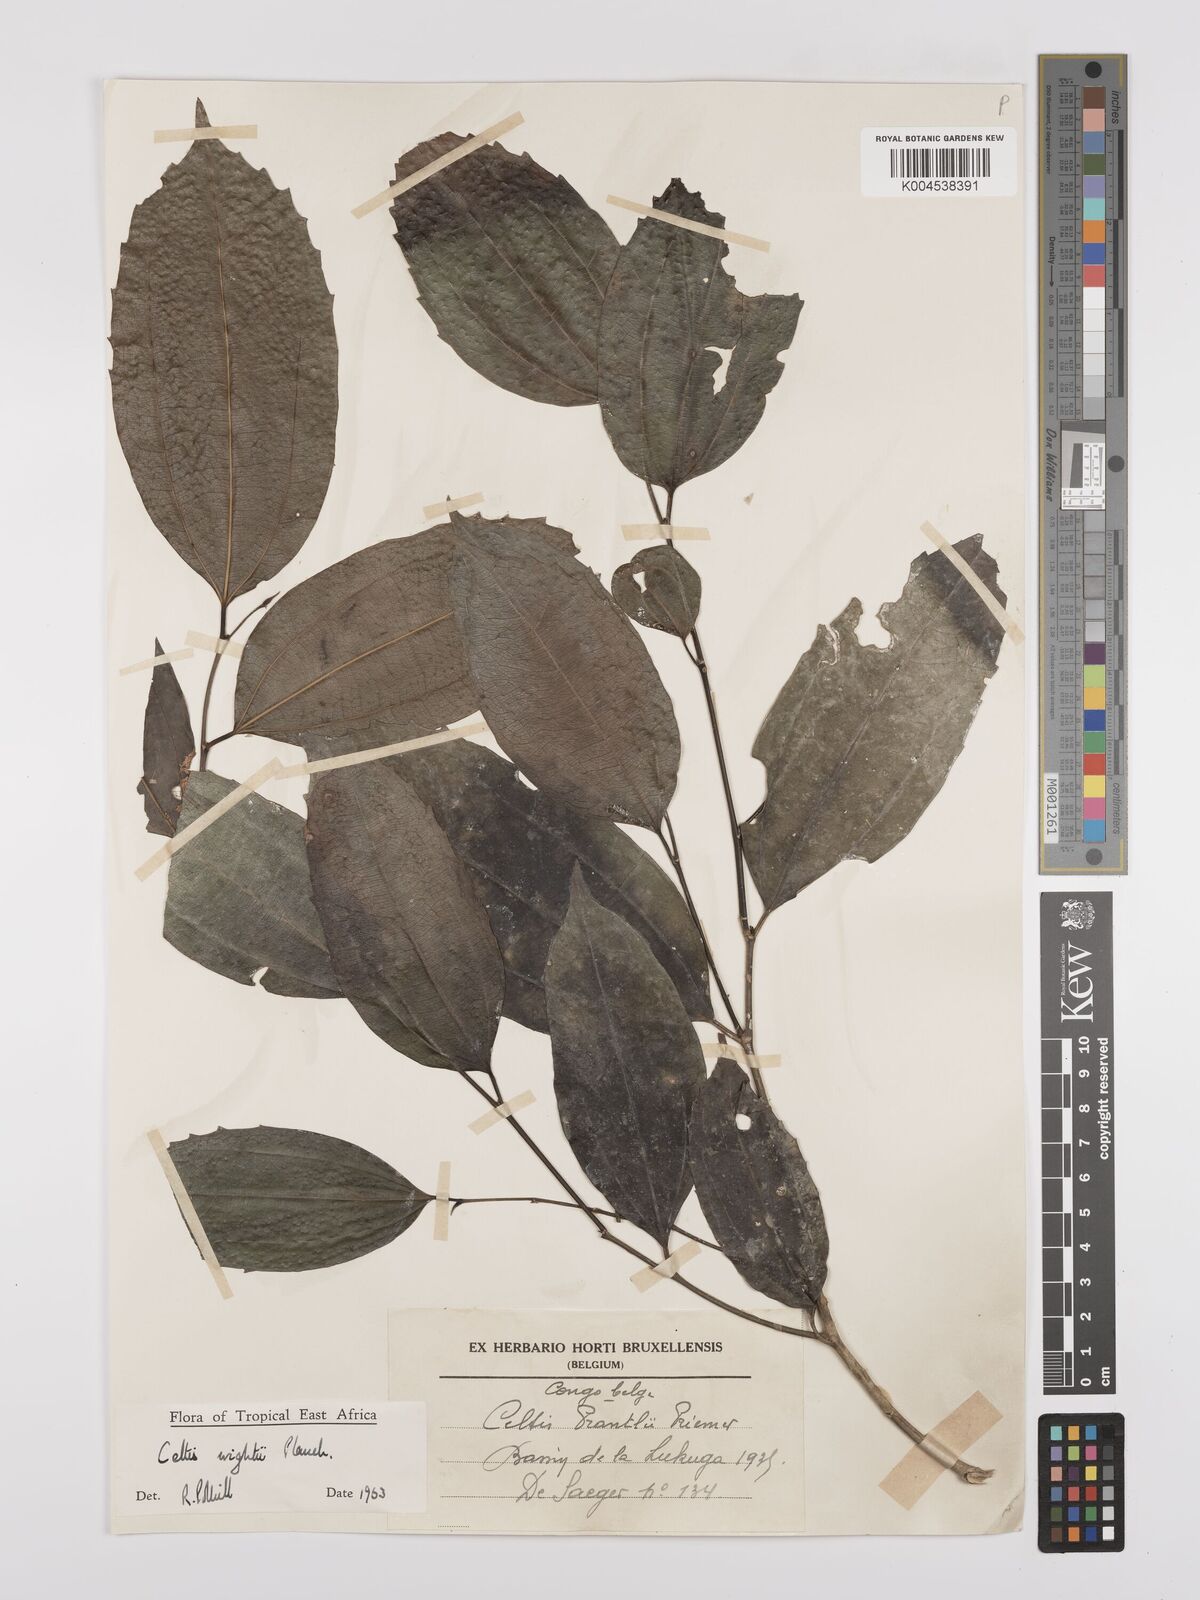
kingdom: Plantae
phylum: Tracheophyta
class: Magnoliopsida
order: Rosales
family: Cannabaceae
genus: Celtis
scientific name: Celtis philippensis
